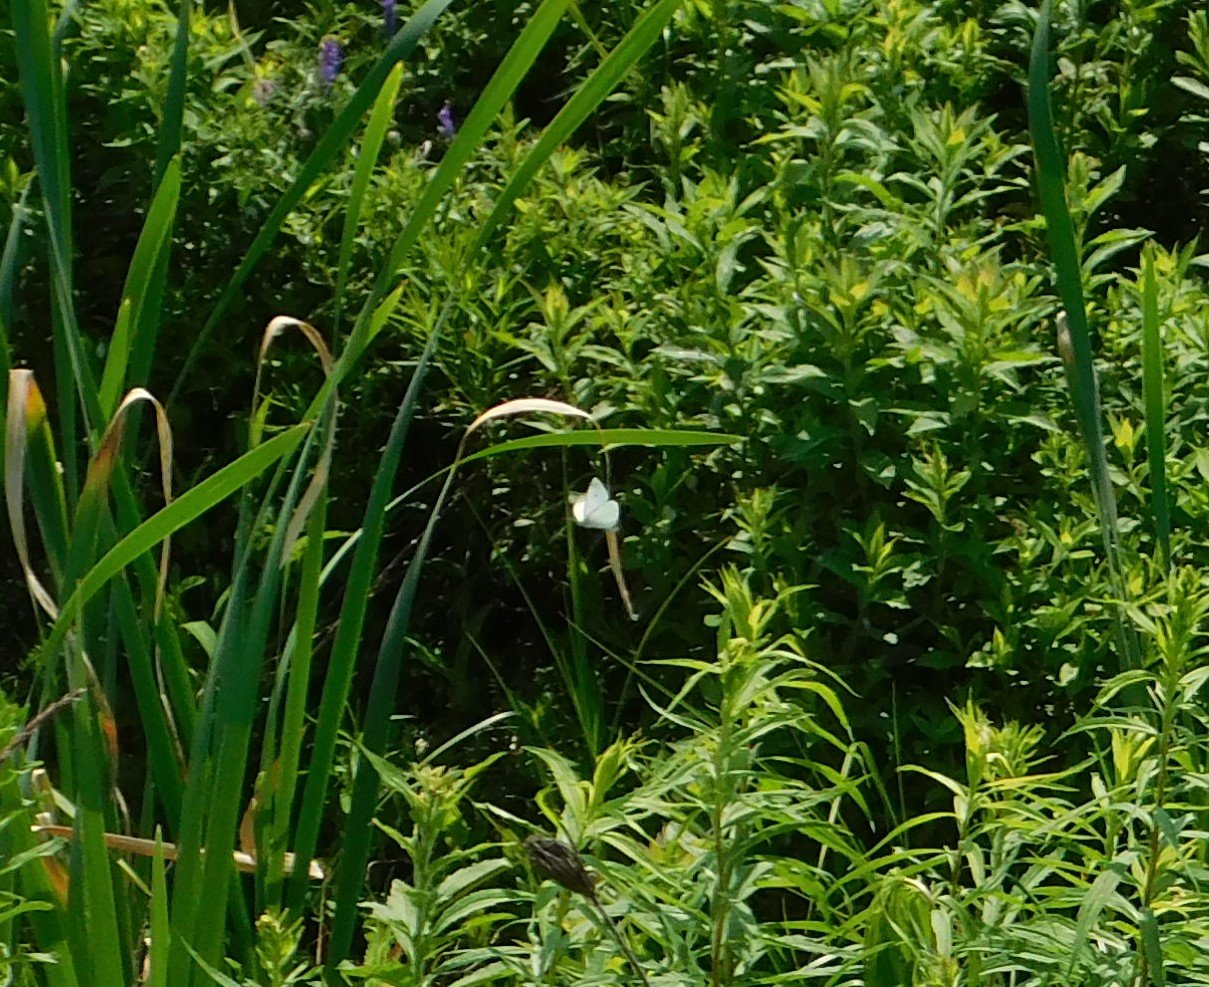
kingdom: Animalia
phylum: Arthropoda
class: Insecta
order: Lepidoptera
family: Pieridae
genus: Pieris
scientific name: Pieris rapae
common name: Cabbage White
